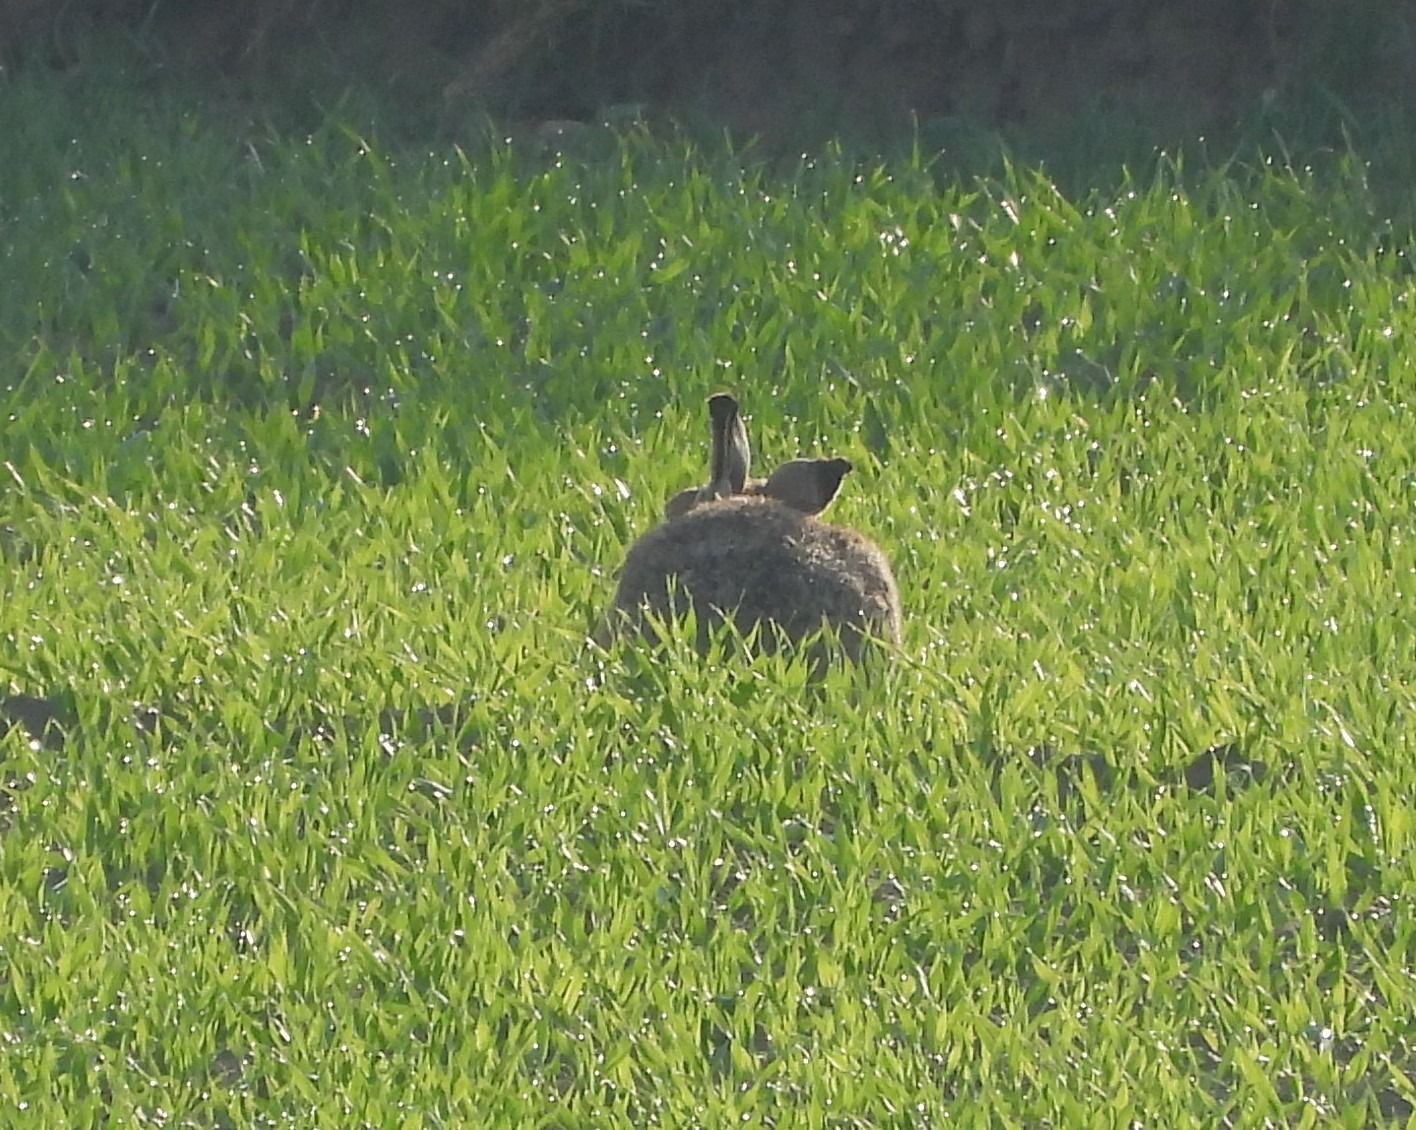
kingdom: Animalia
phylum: Chordata
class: Mammalia
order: Lagomorpha
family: Leporidae
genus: Lepus
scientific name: Lepus europaeus
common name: Hare
